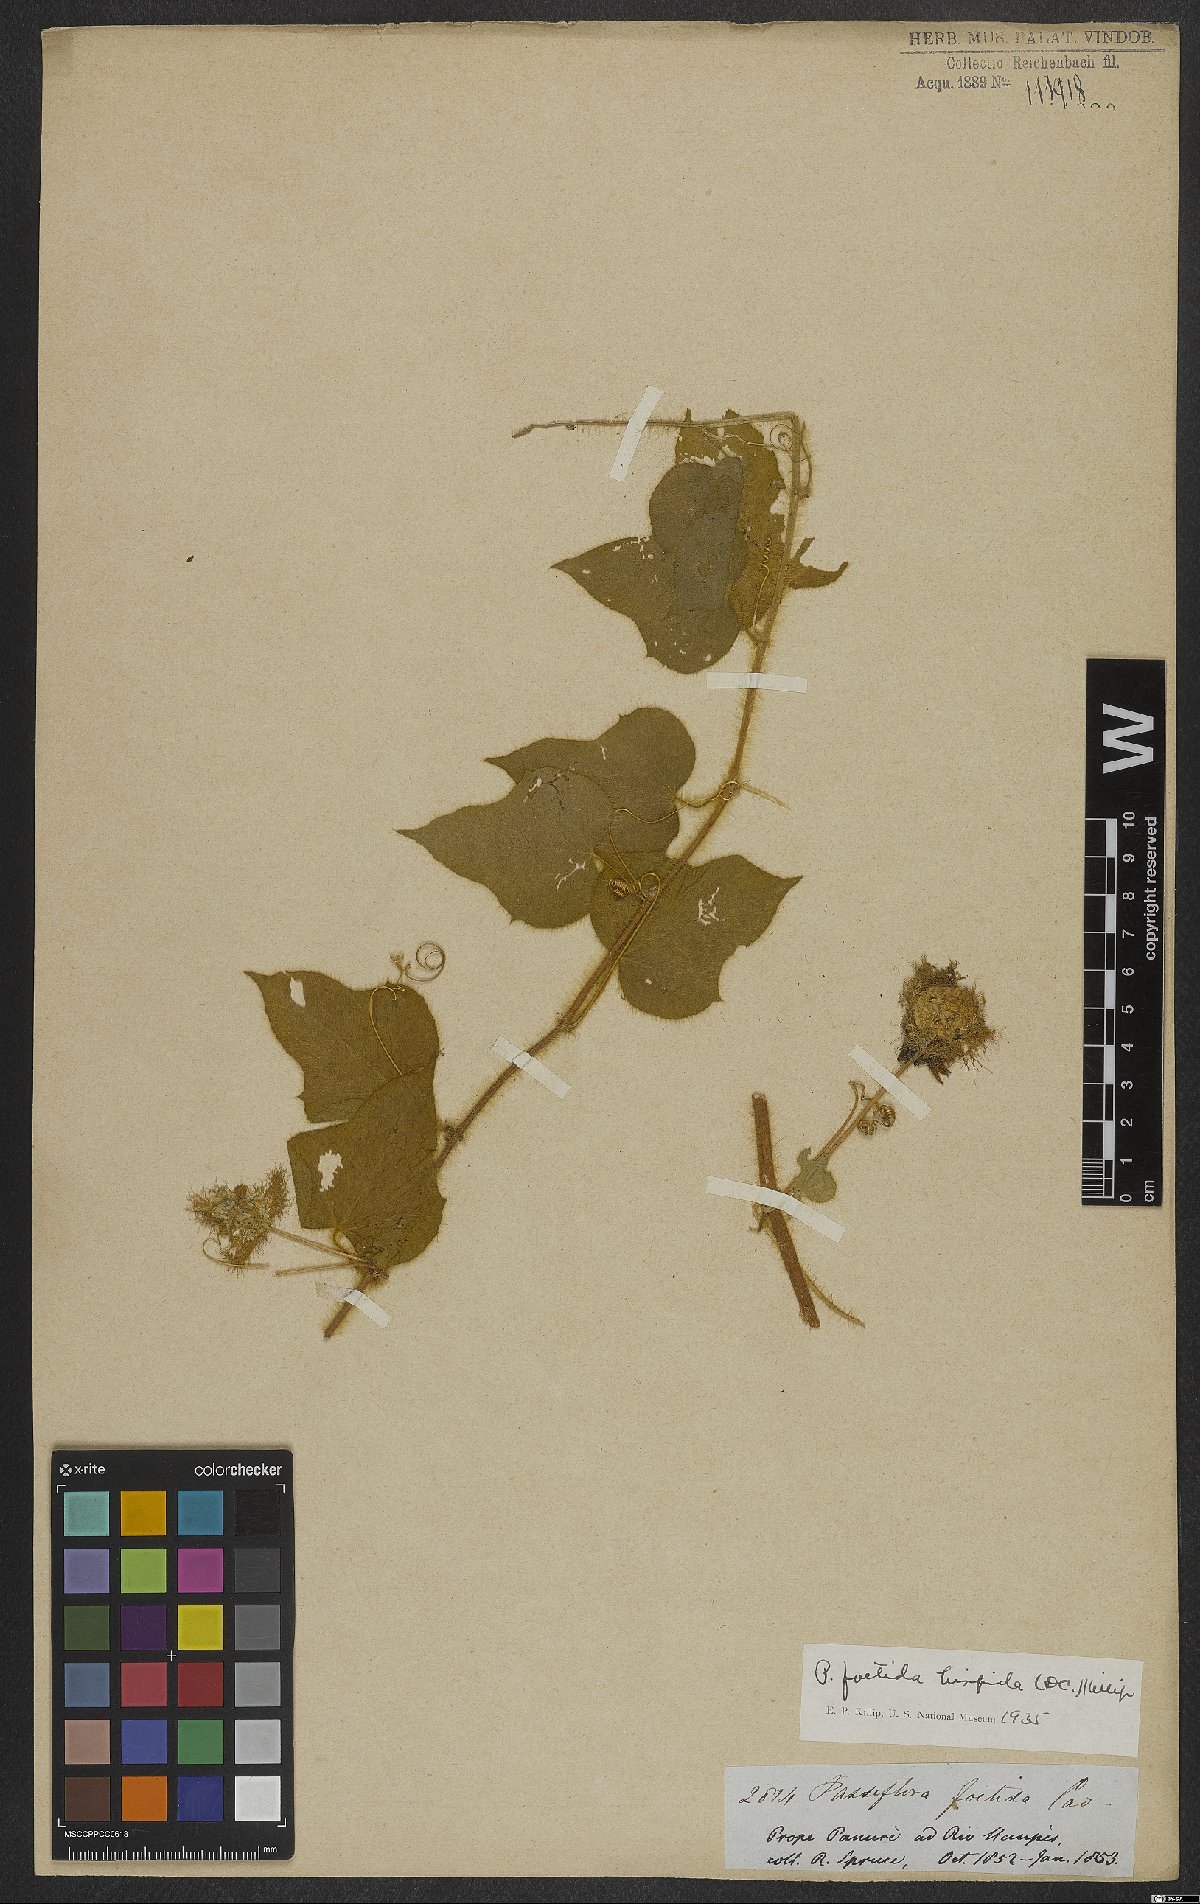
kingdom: Plantae
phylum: Tracheophyta
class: Magnoliopsida
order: Malpighiales
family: Passifloraceae
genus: Passiflora
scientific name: Passiflora vesicaria
